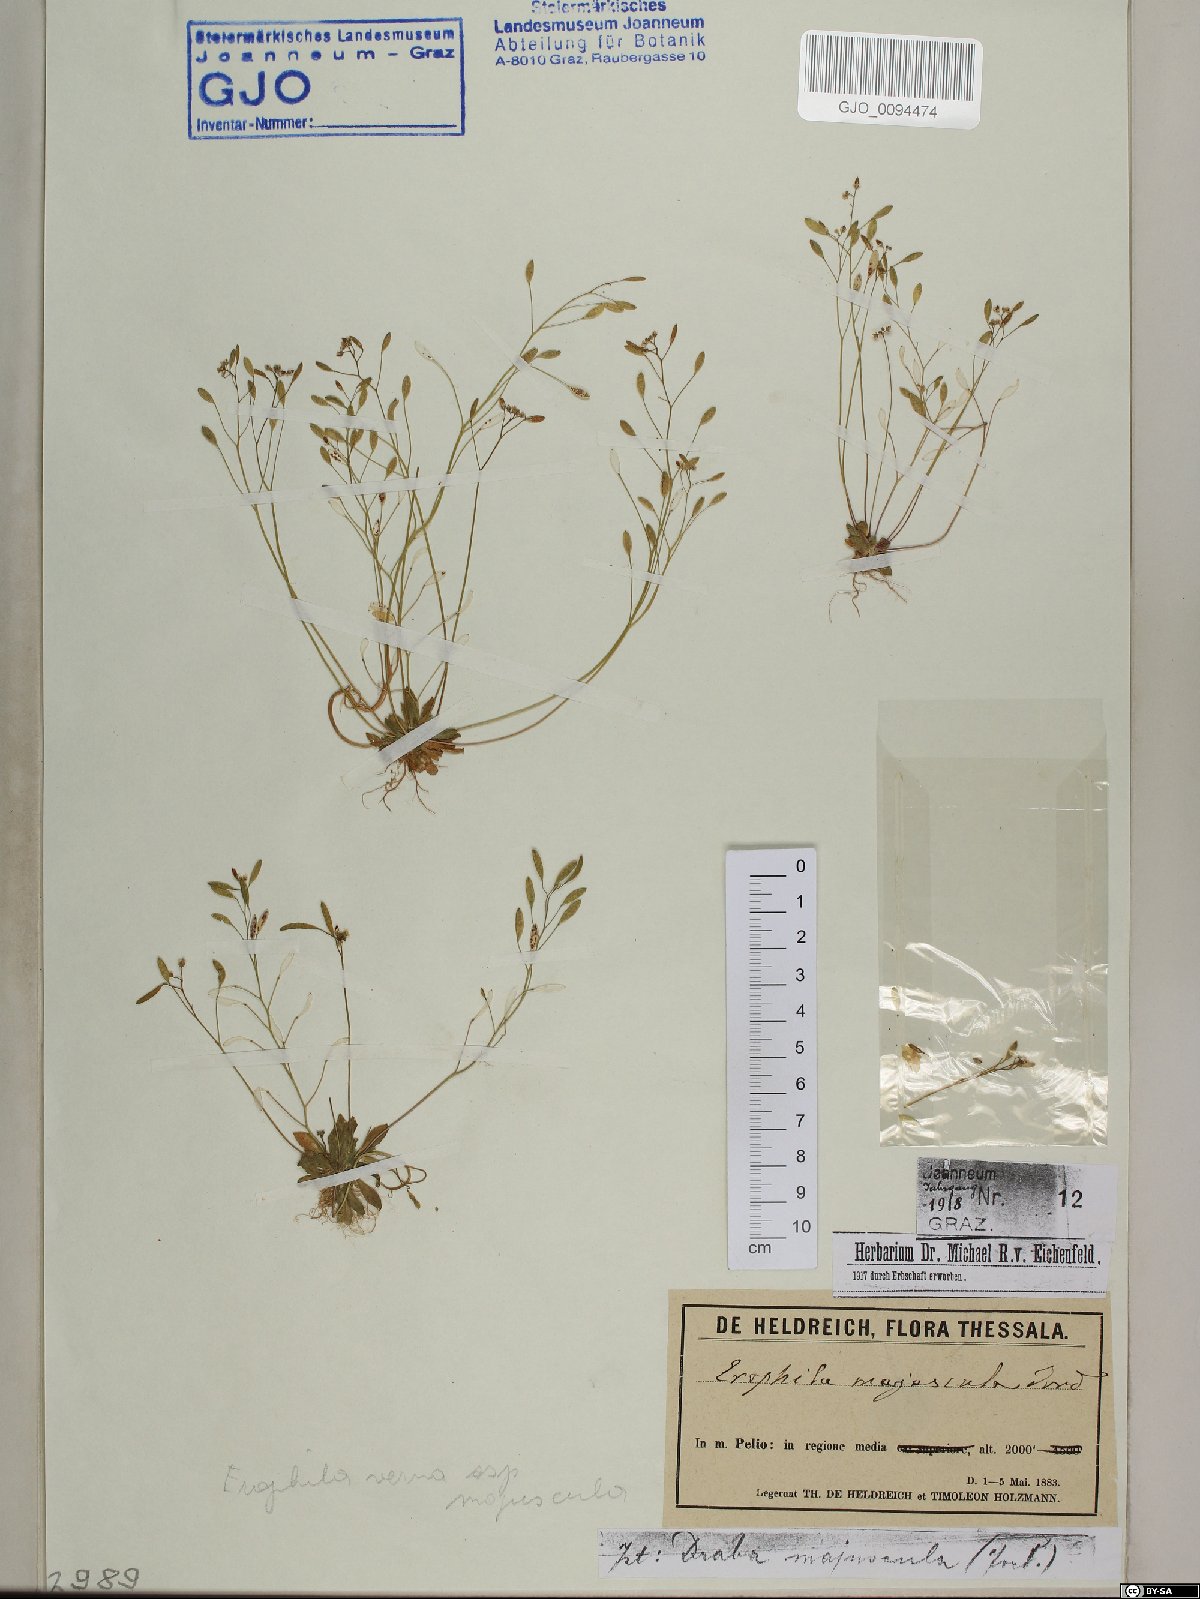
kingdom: Plantae
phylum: Tracheophyta
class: Magnoliopsida
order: Brassicales
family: Brassicaceae
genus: Draba
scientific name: Draba verna
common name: Spring draba
